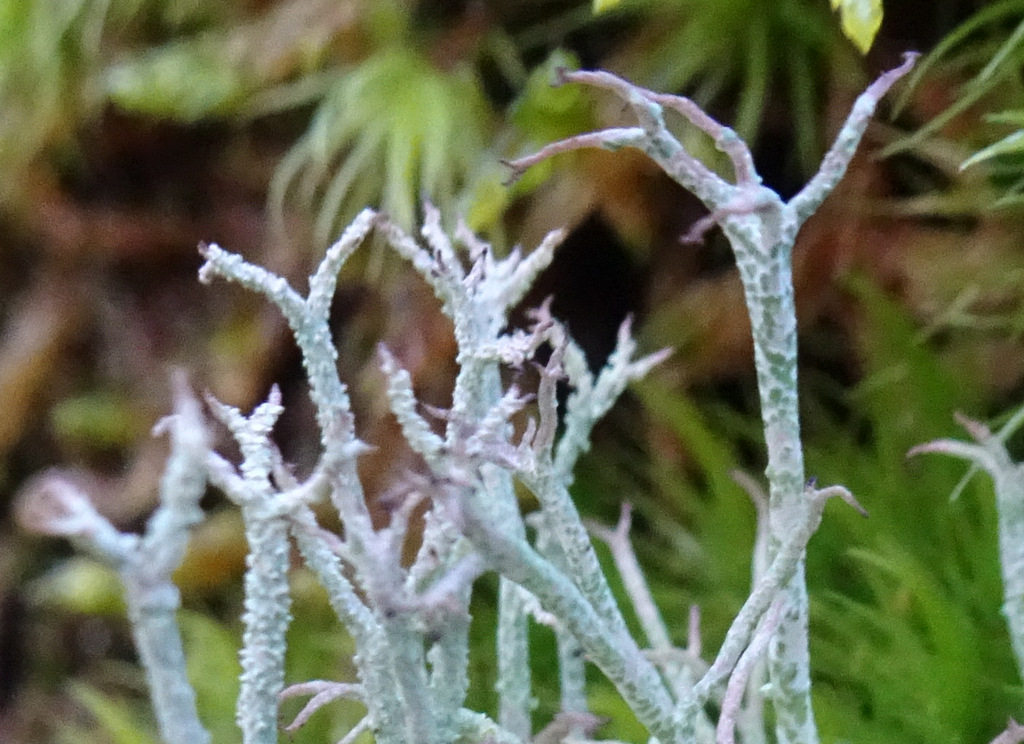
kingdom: Fungi
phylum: Ascomycota
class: Lecanoromycetes
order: Lecanorales
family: Cladoniaceae
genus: Cladonia
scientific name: Cladonia rangiformis
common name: spættet bægerlav
